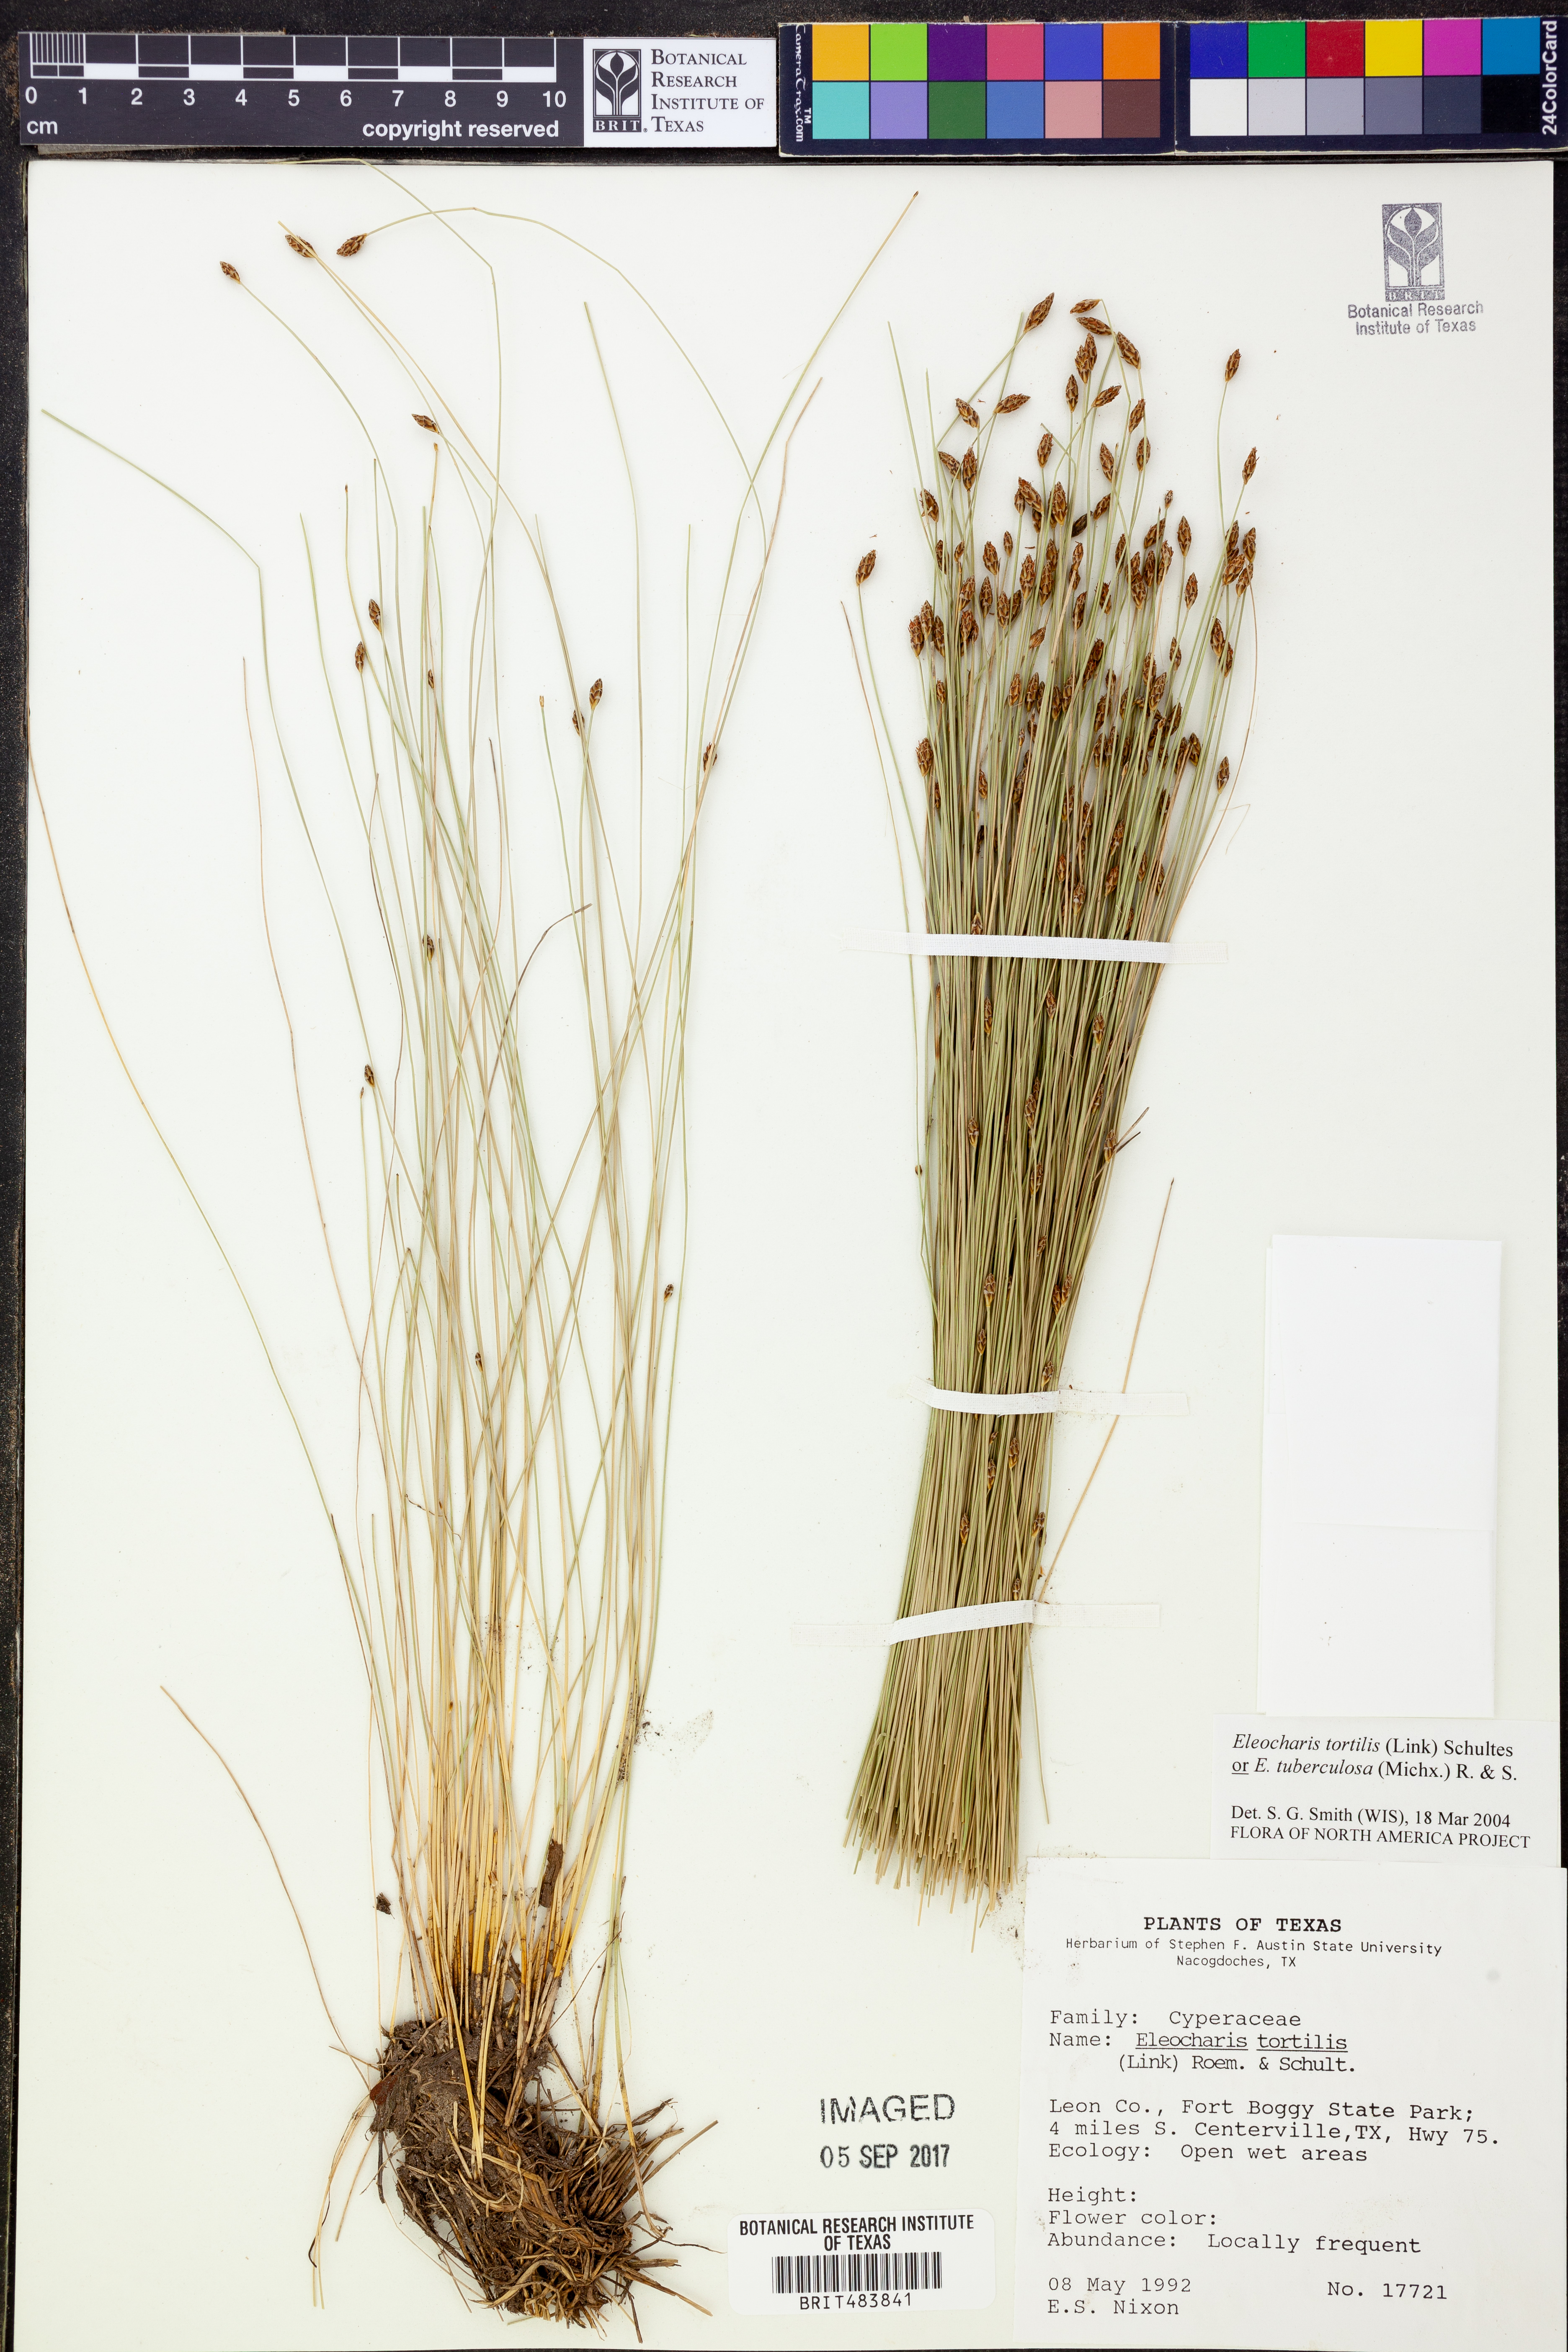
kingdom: Plantae
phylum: Tracheophyta
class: Liliopsida
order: Poales
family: Cyperaceae
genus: Eleocharis
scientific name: Eleocharis tortilis
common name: Twisted spike sedge
